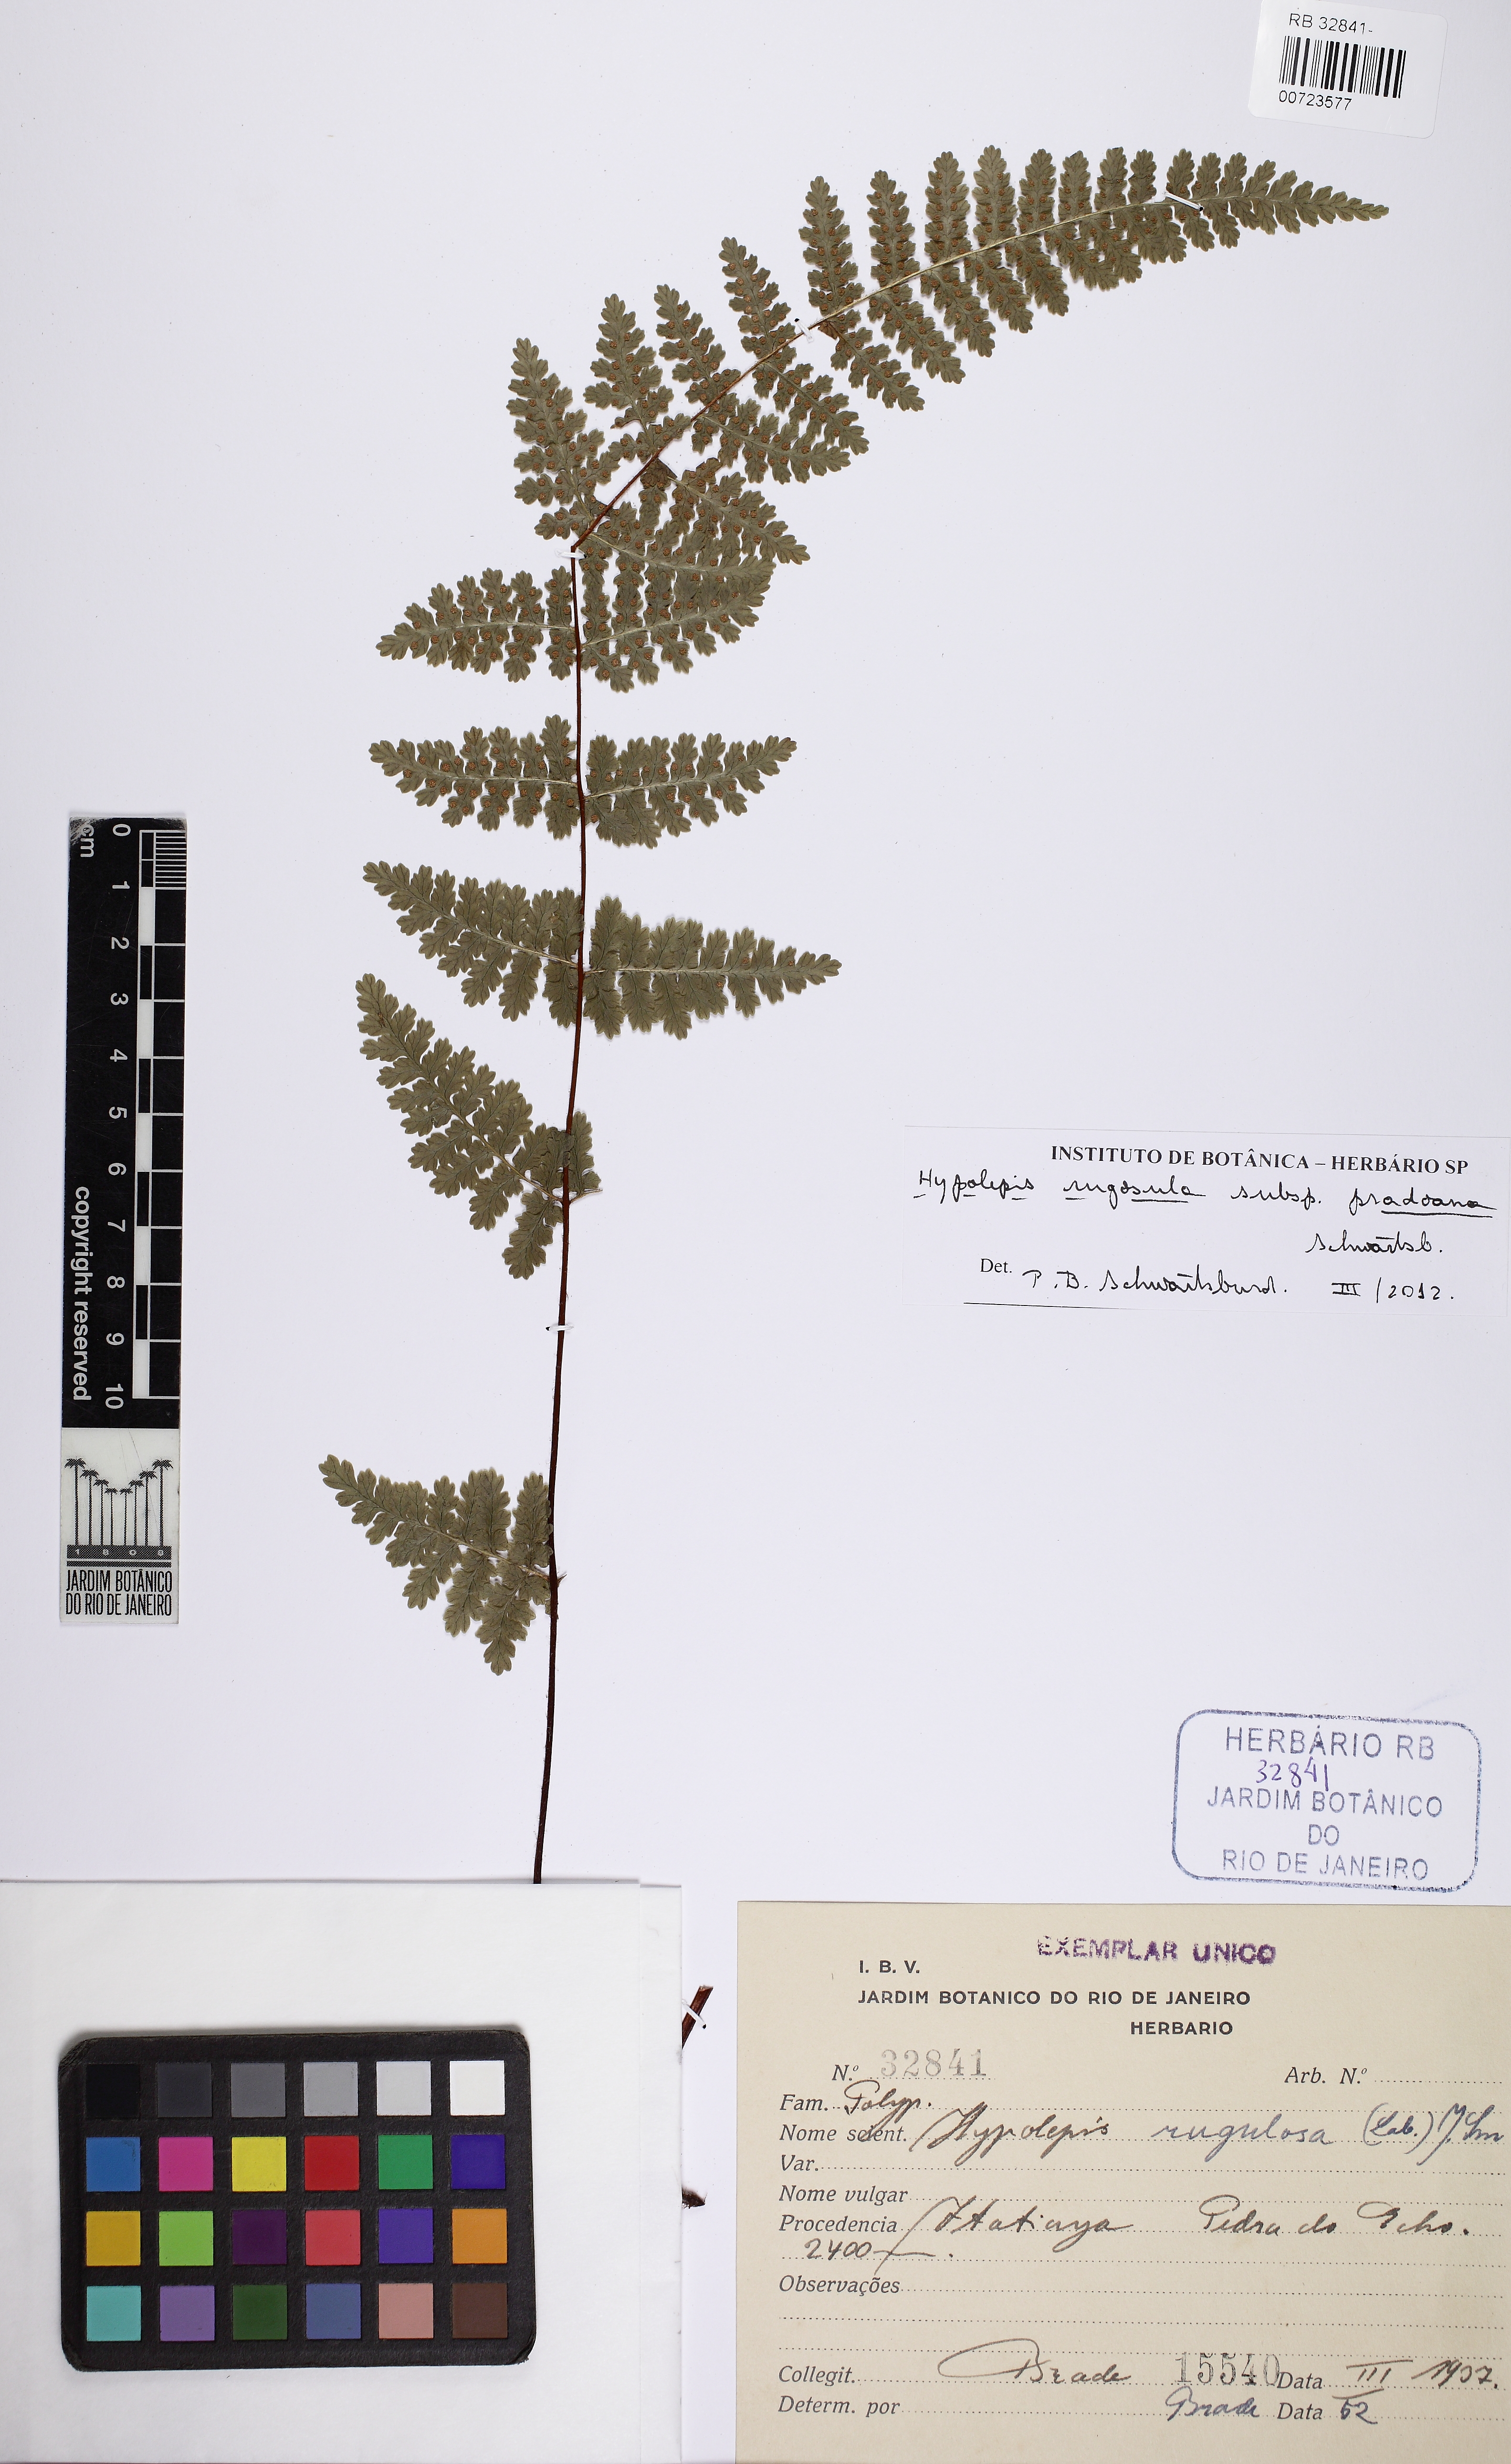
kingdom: Plantae
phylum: Tracheophyta
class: Polypodiopsida
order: Polypodiales
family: Dennstaedtiaceae
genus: Hypolepis
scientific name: Hypolepis rugosula
